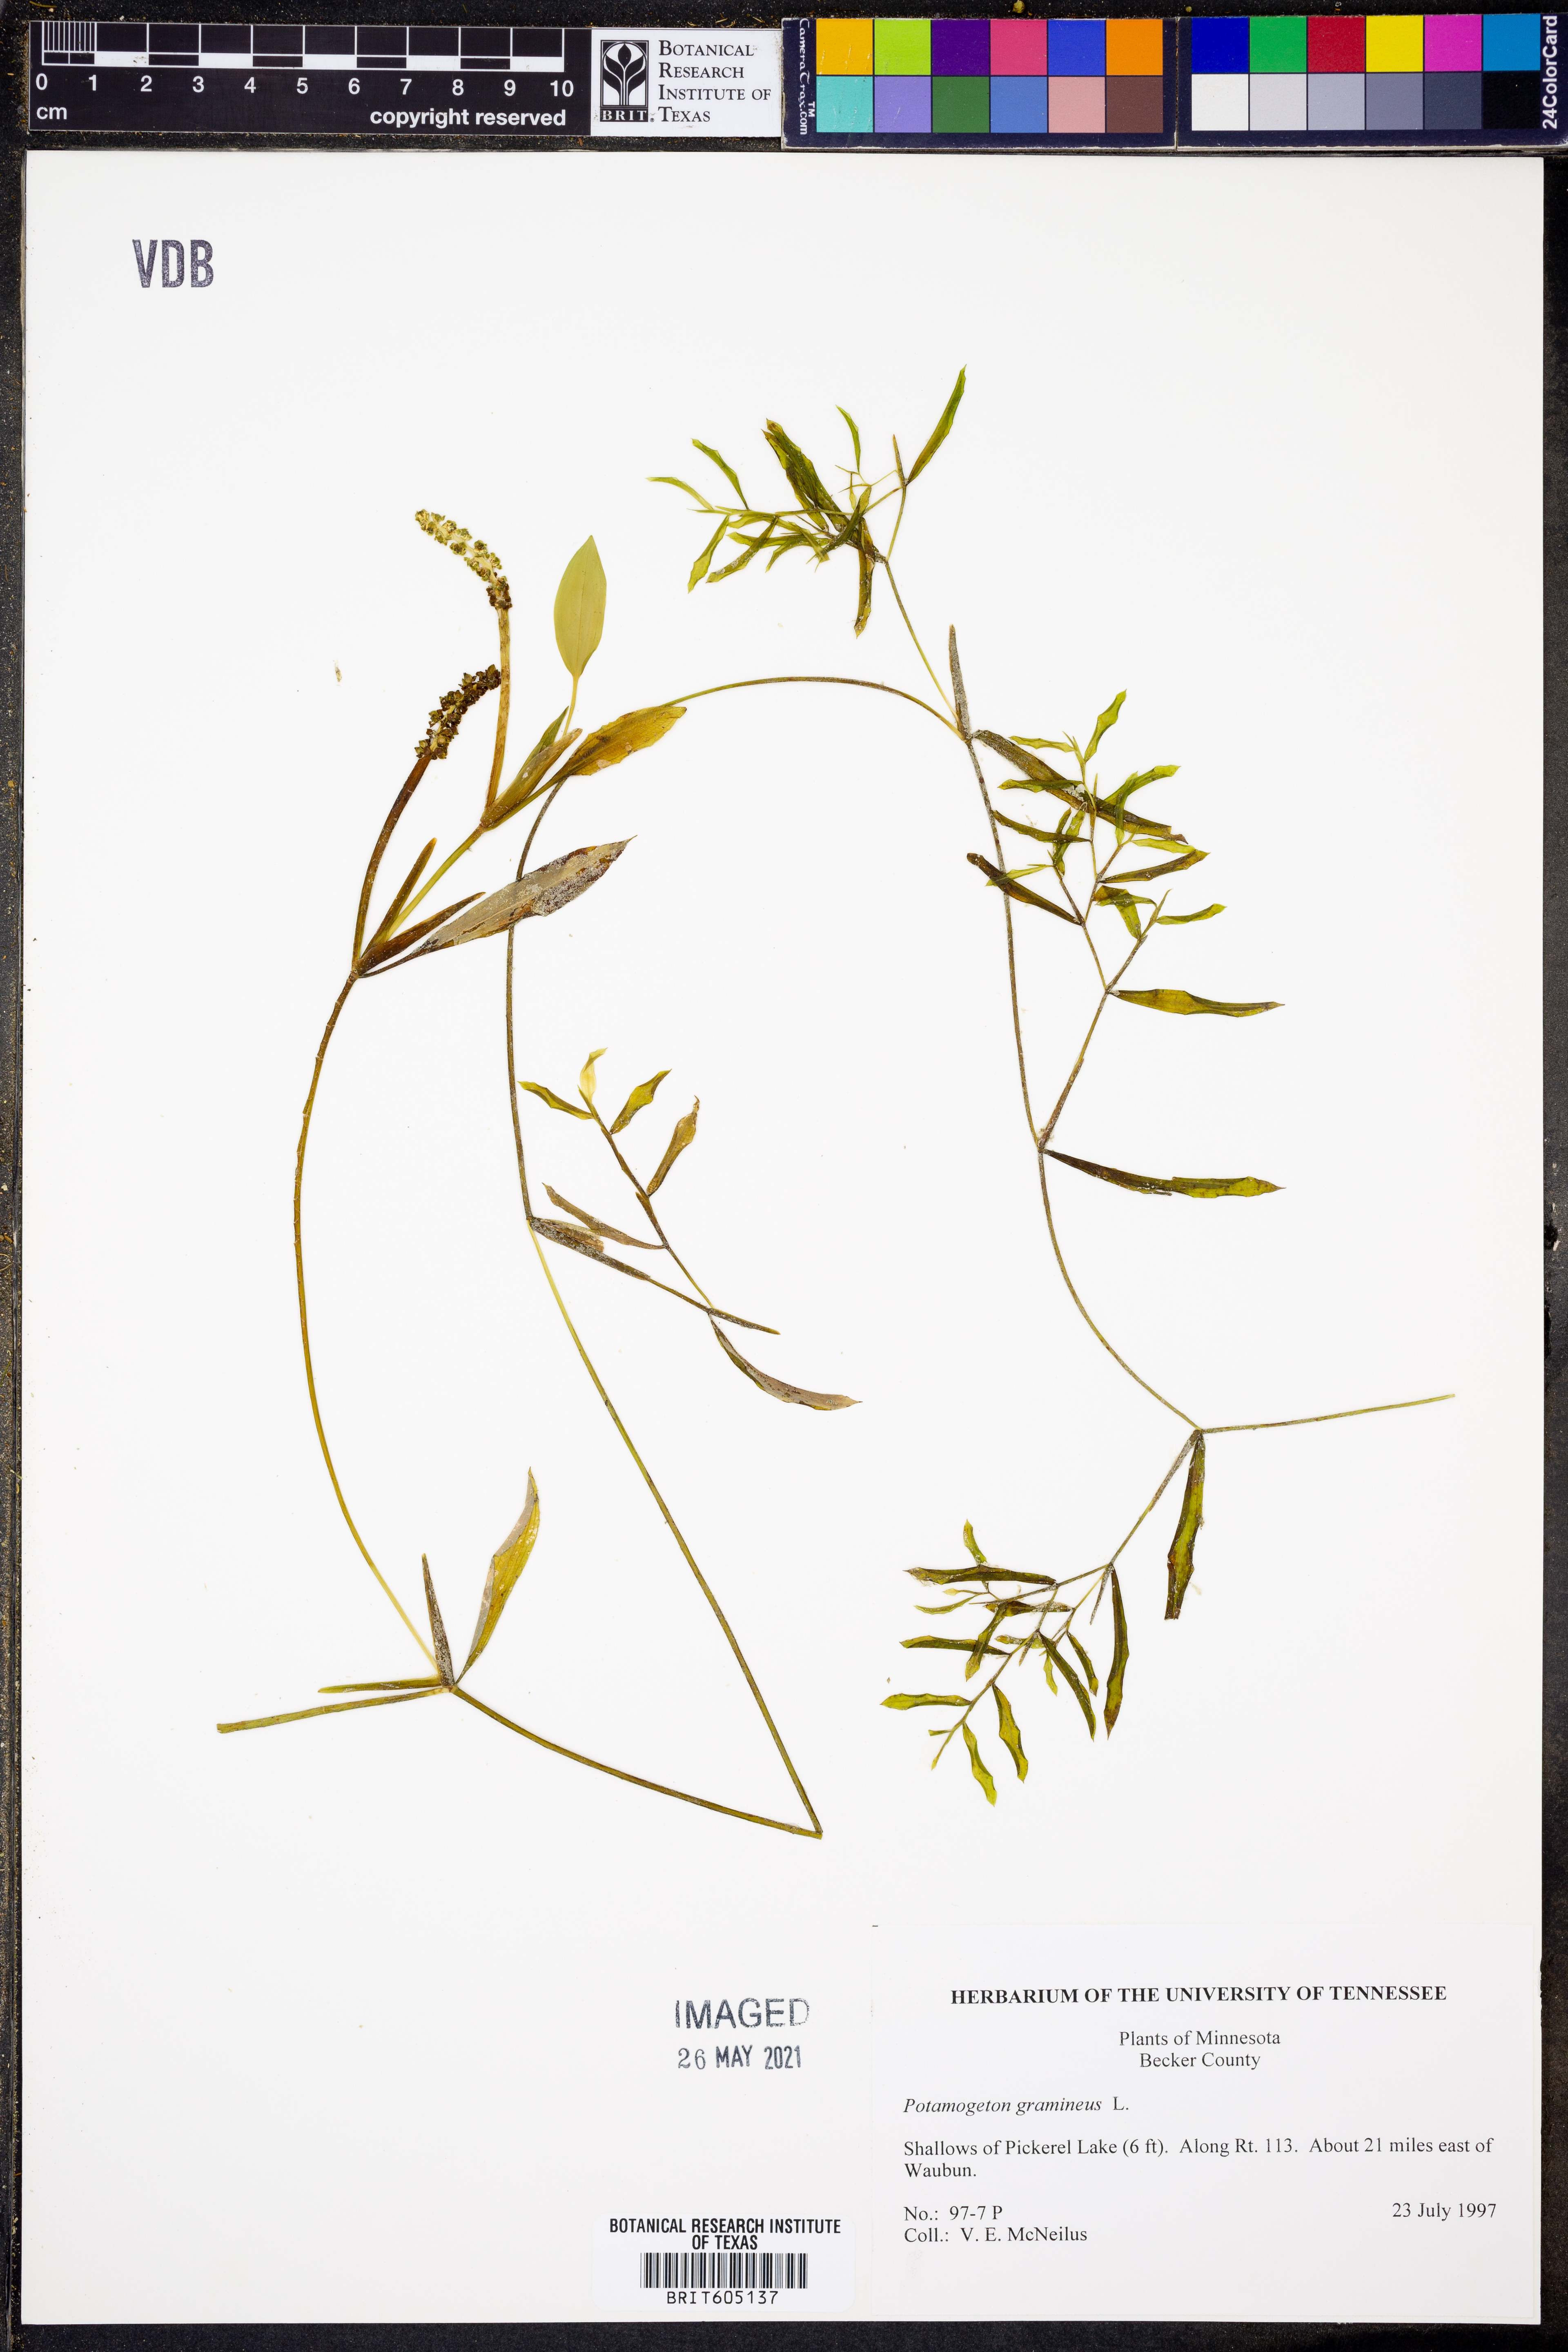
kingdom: Plantae
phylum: Tracheophyta
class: Liliopsida
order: Alismatales
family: Potamogetonaceae
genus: Potamogeton
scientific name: Potamogeton gramineus
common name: Various-leaved pondweed
